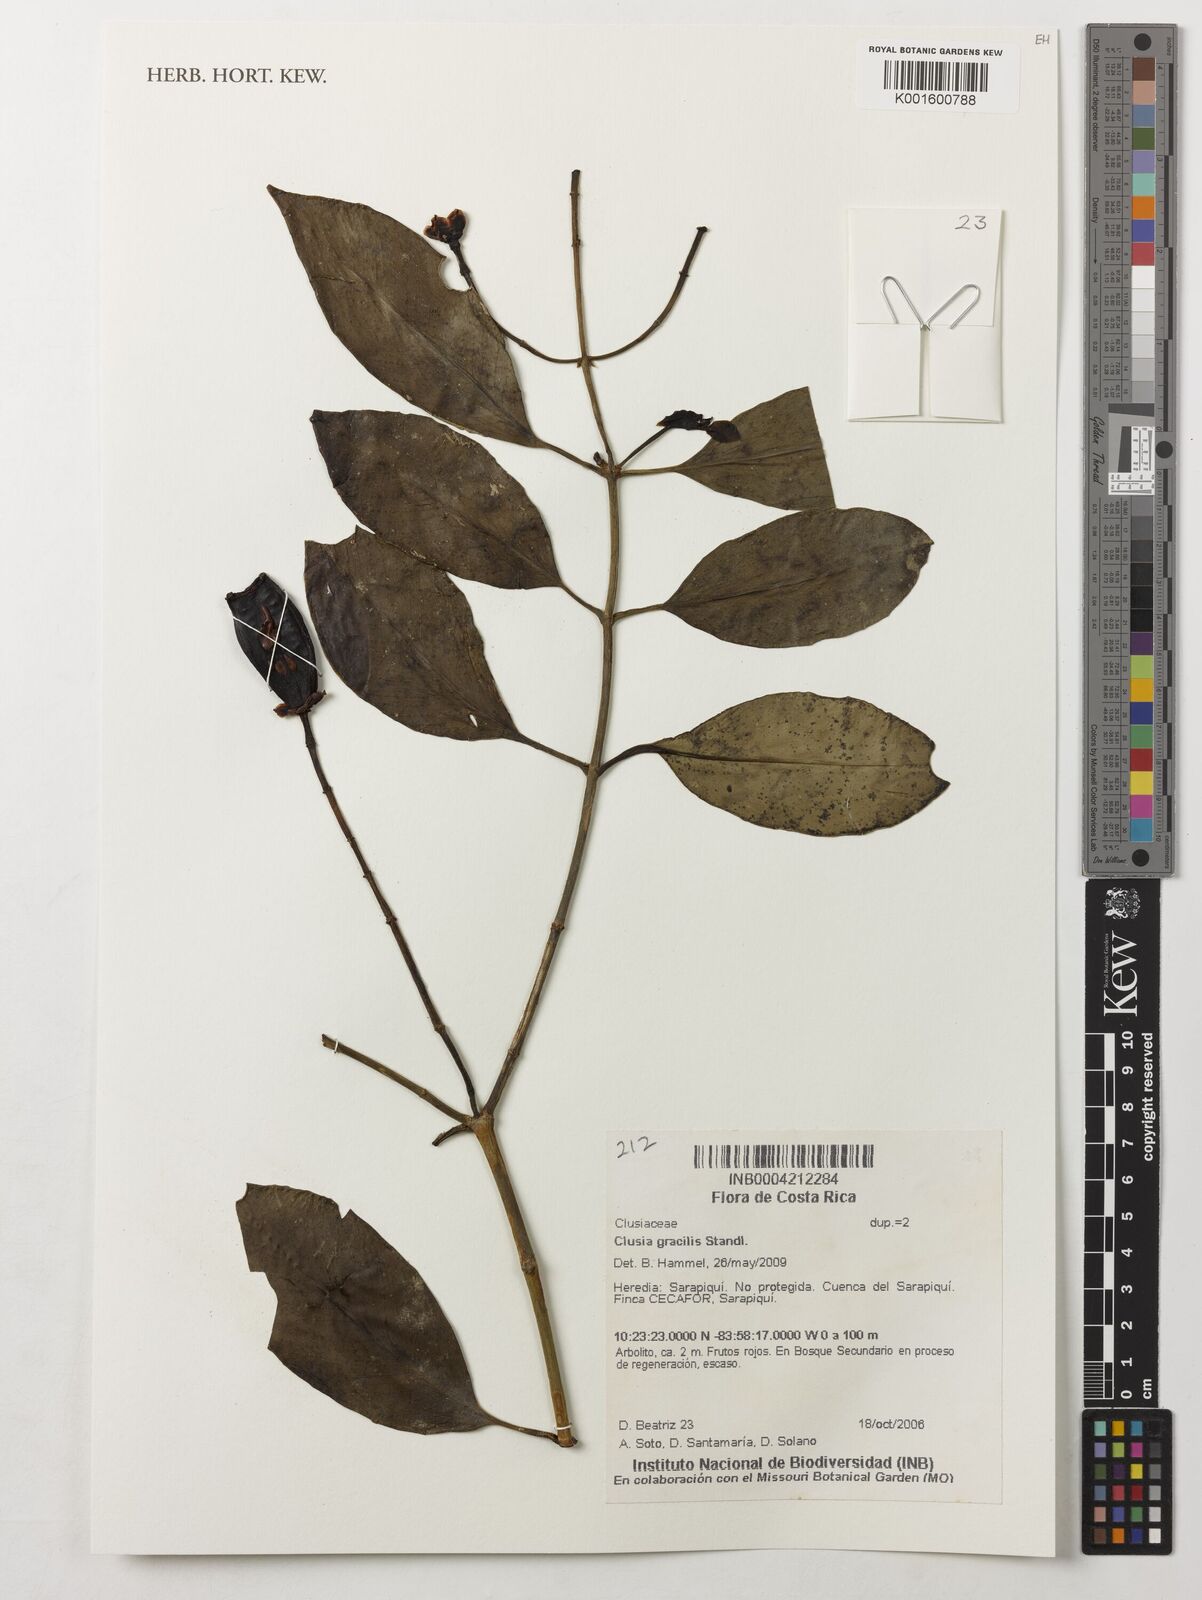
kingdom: Plantae
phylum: Tracheophyta
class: Magnoliopsida
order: Malpighiales
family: Clusiaceae
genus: Clusia
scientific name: Clusia gracilis
